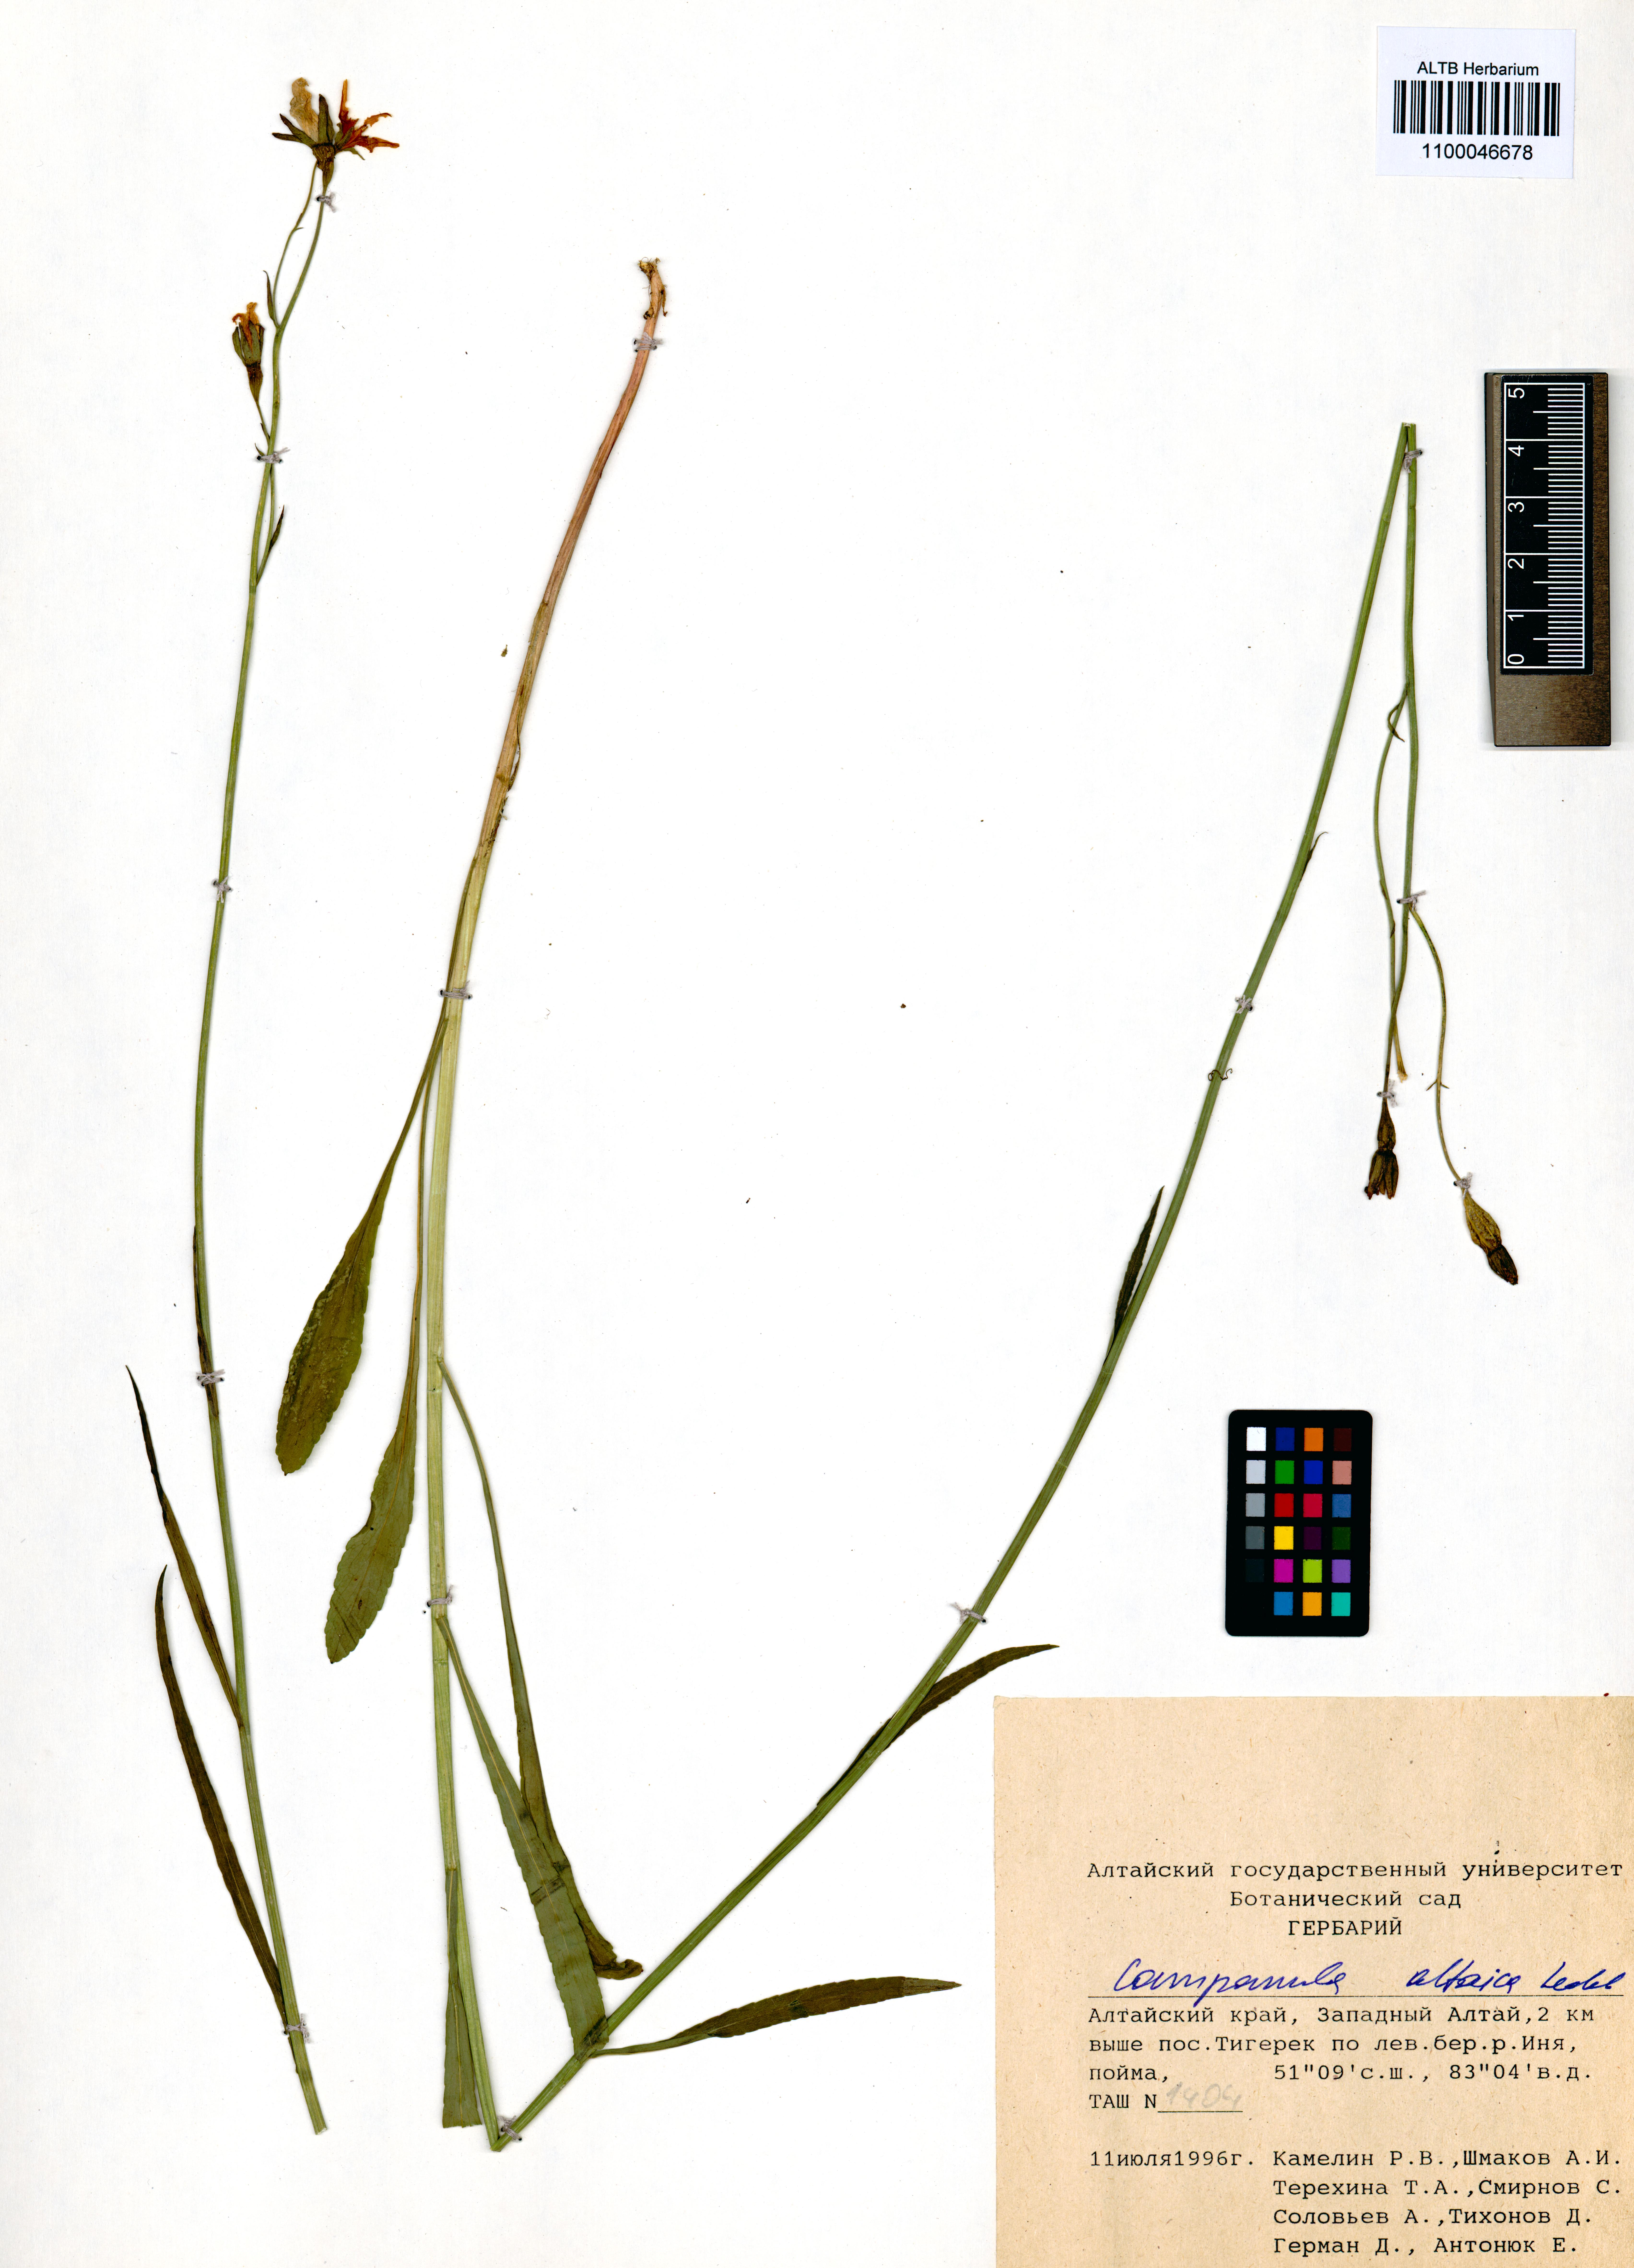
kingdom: Plantae
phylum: Tracheophyta
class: Magnoliopsida
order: Asterales
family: Campanulaceae
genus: Campanula
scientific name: Campanula stevenii
